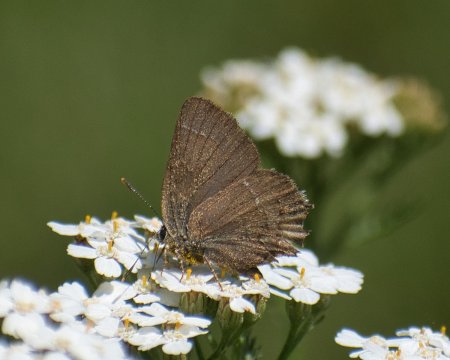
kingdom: Animalia
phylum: Arthropoda
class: Insecta
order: Lepidoptera
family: Lycaenidae
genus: Mitoura
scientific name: Mitoura gryneus
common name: Juniper Hairstreak
